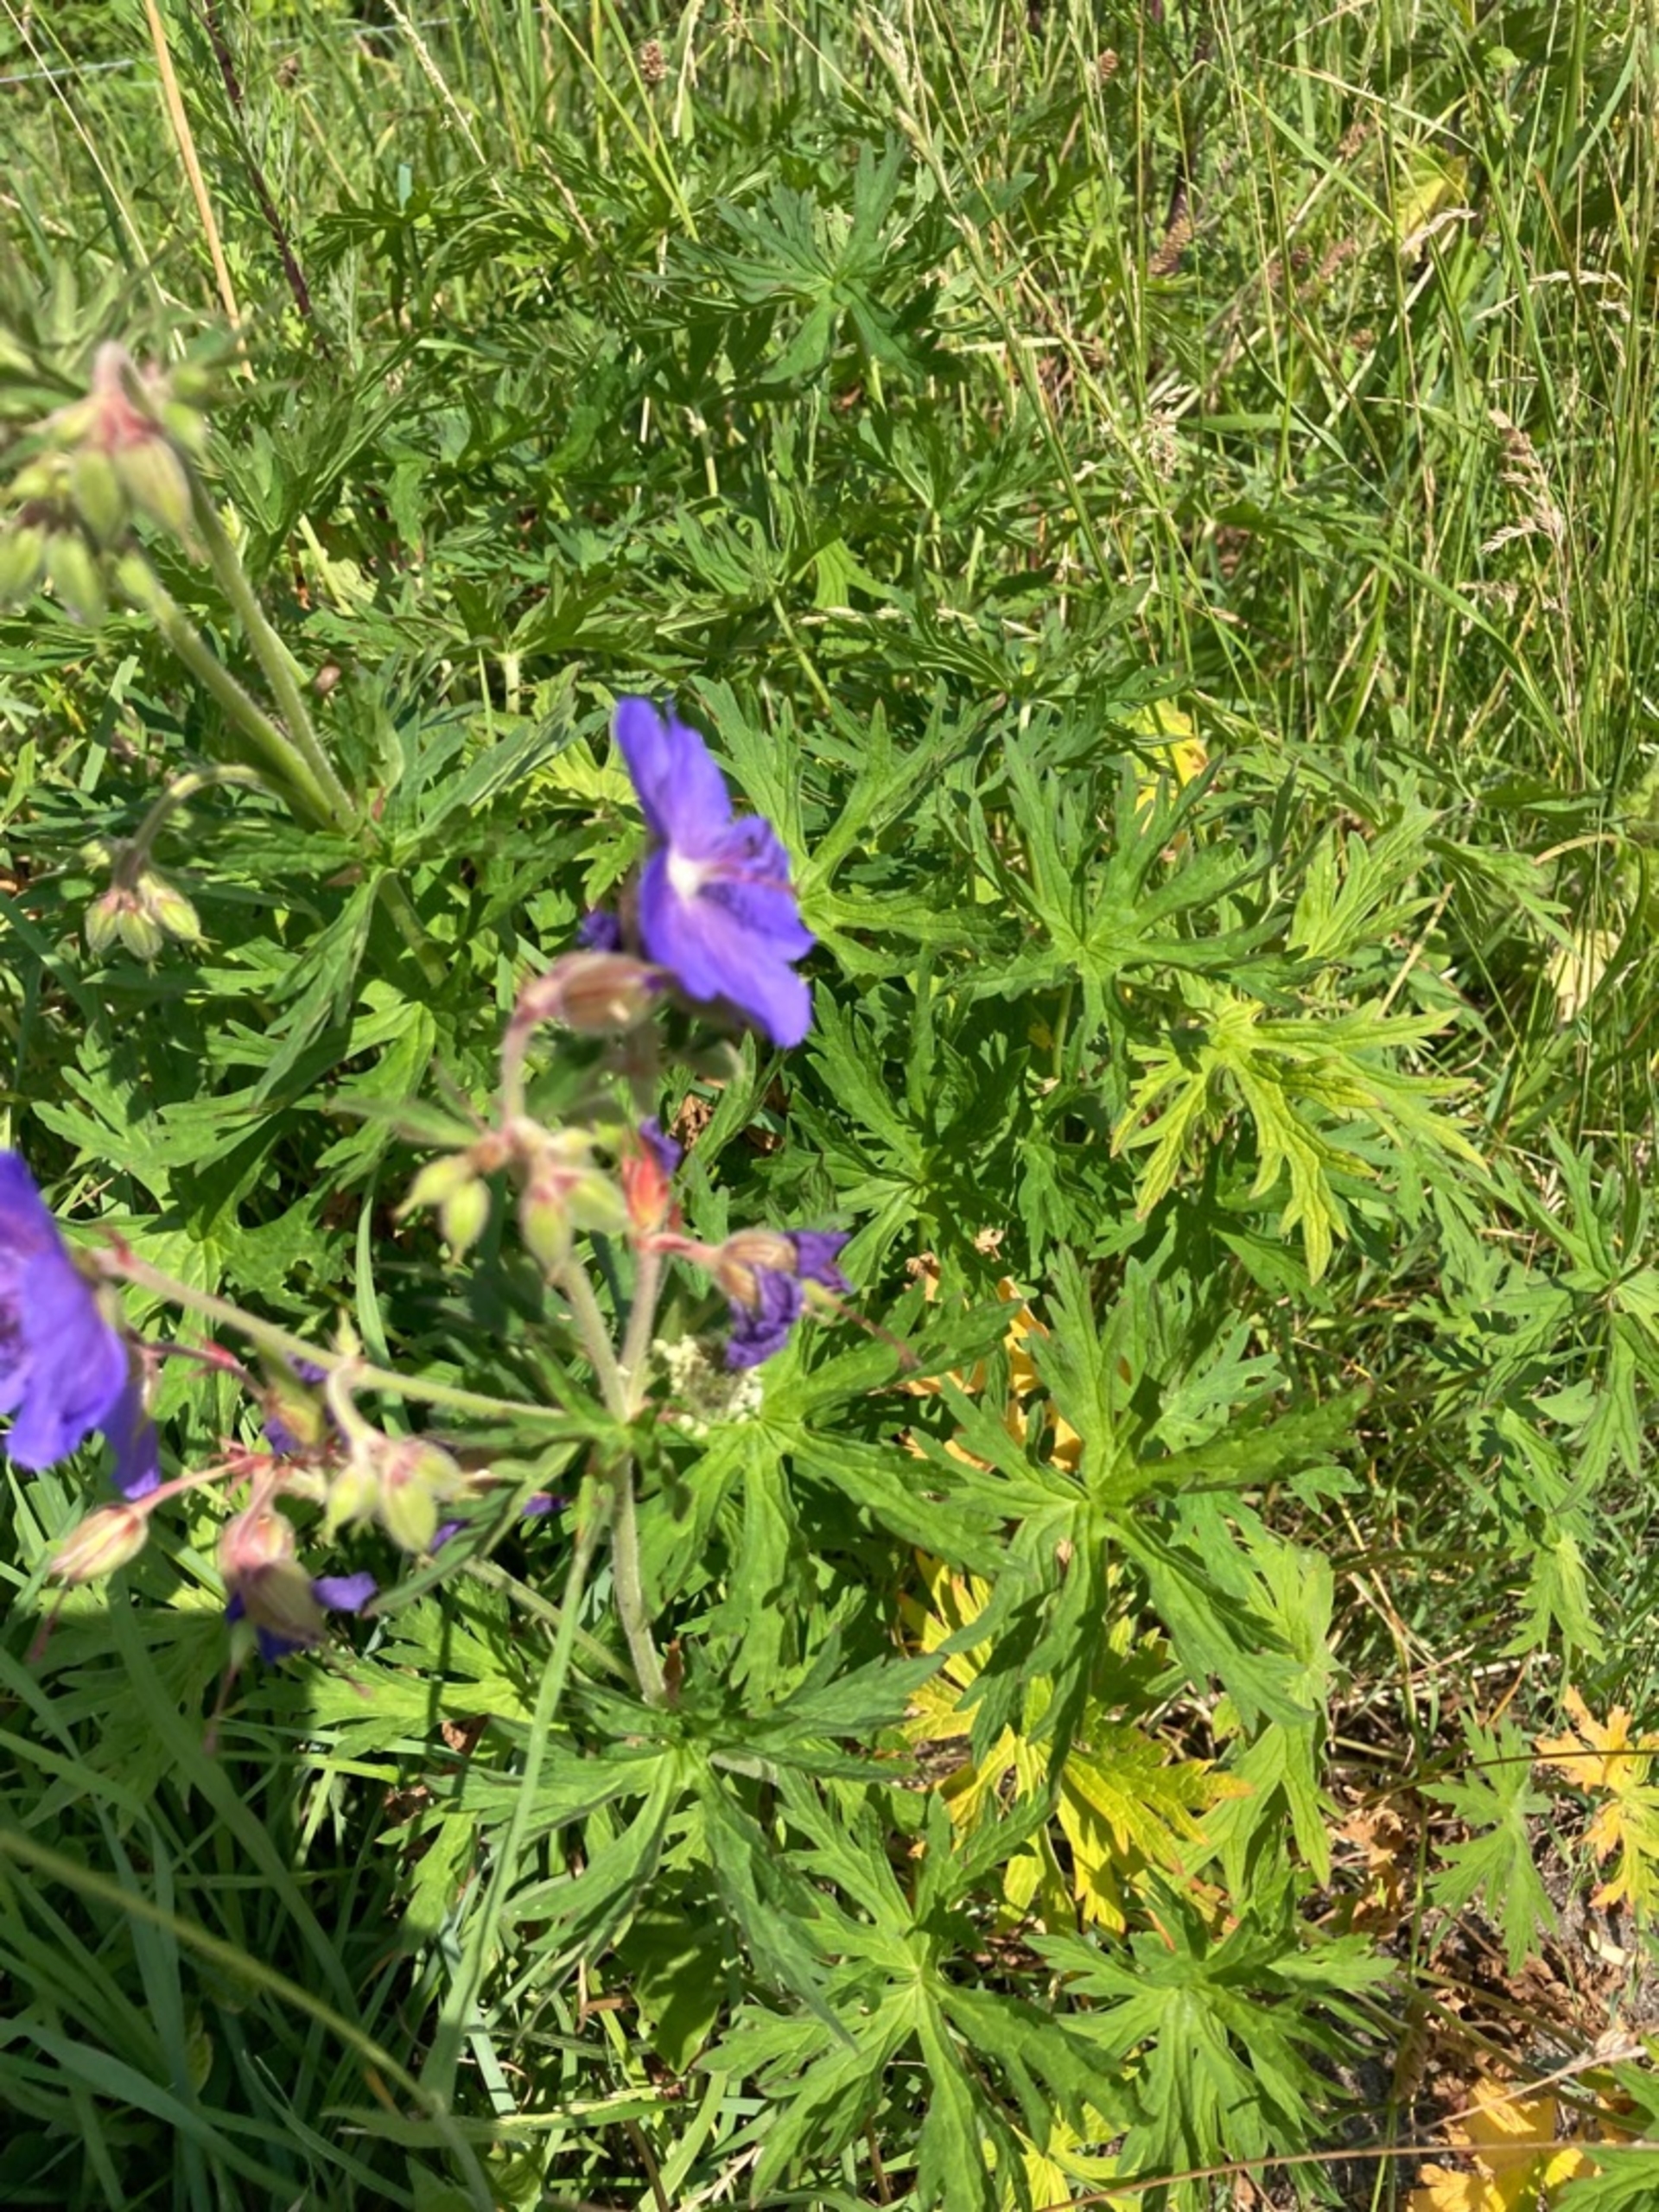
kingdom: Plantae
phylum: Tracheophyta
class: Magnoliopsida
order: Geraniales
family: Geraniaceae
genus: Geranium
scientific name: Geranium pratense
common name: Eng-storkenæb
